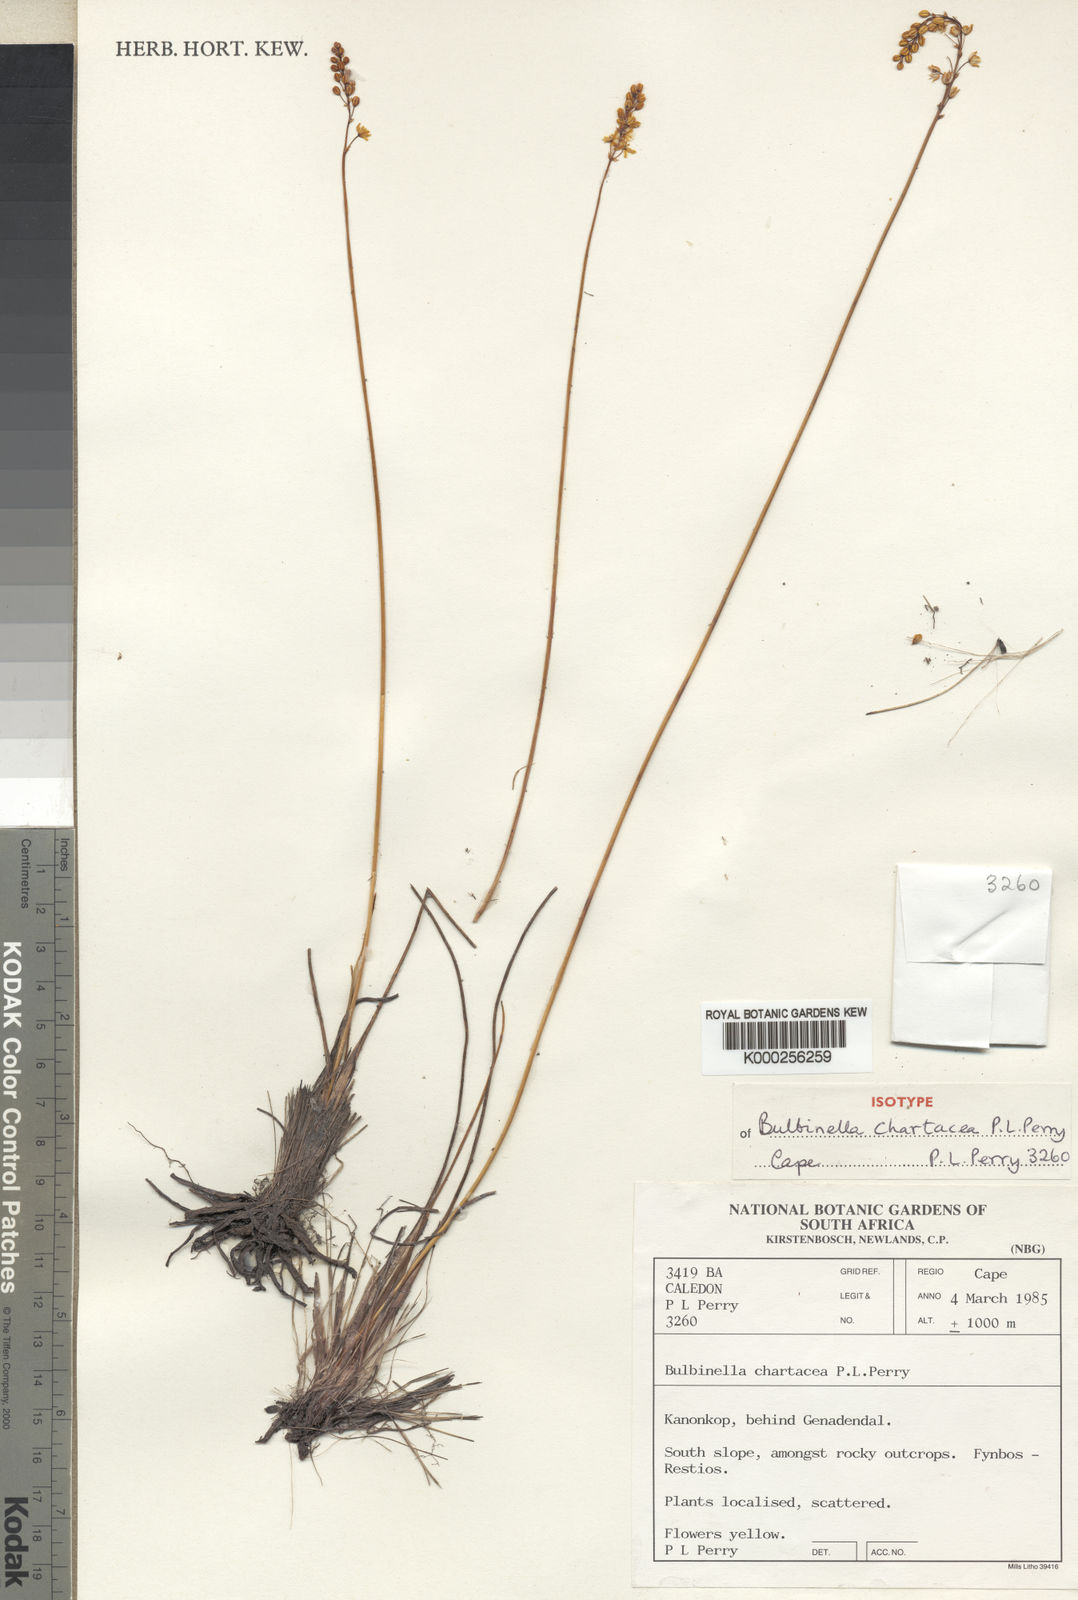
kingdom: Plantae
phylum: Tracheophyta
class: Liliopsida
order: Asparagales
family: Asphodelaceae
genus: Bulbinella
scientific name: Bulbinella chartacea
